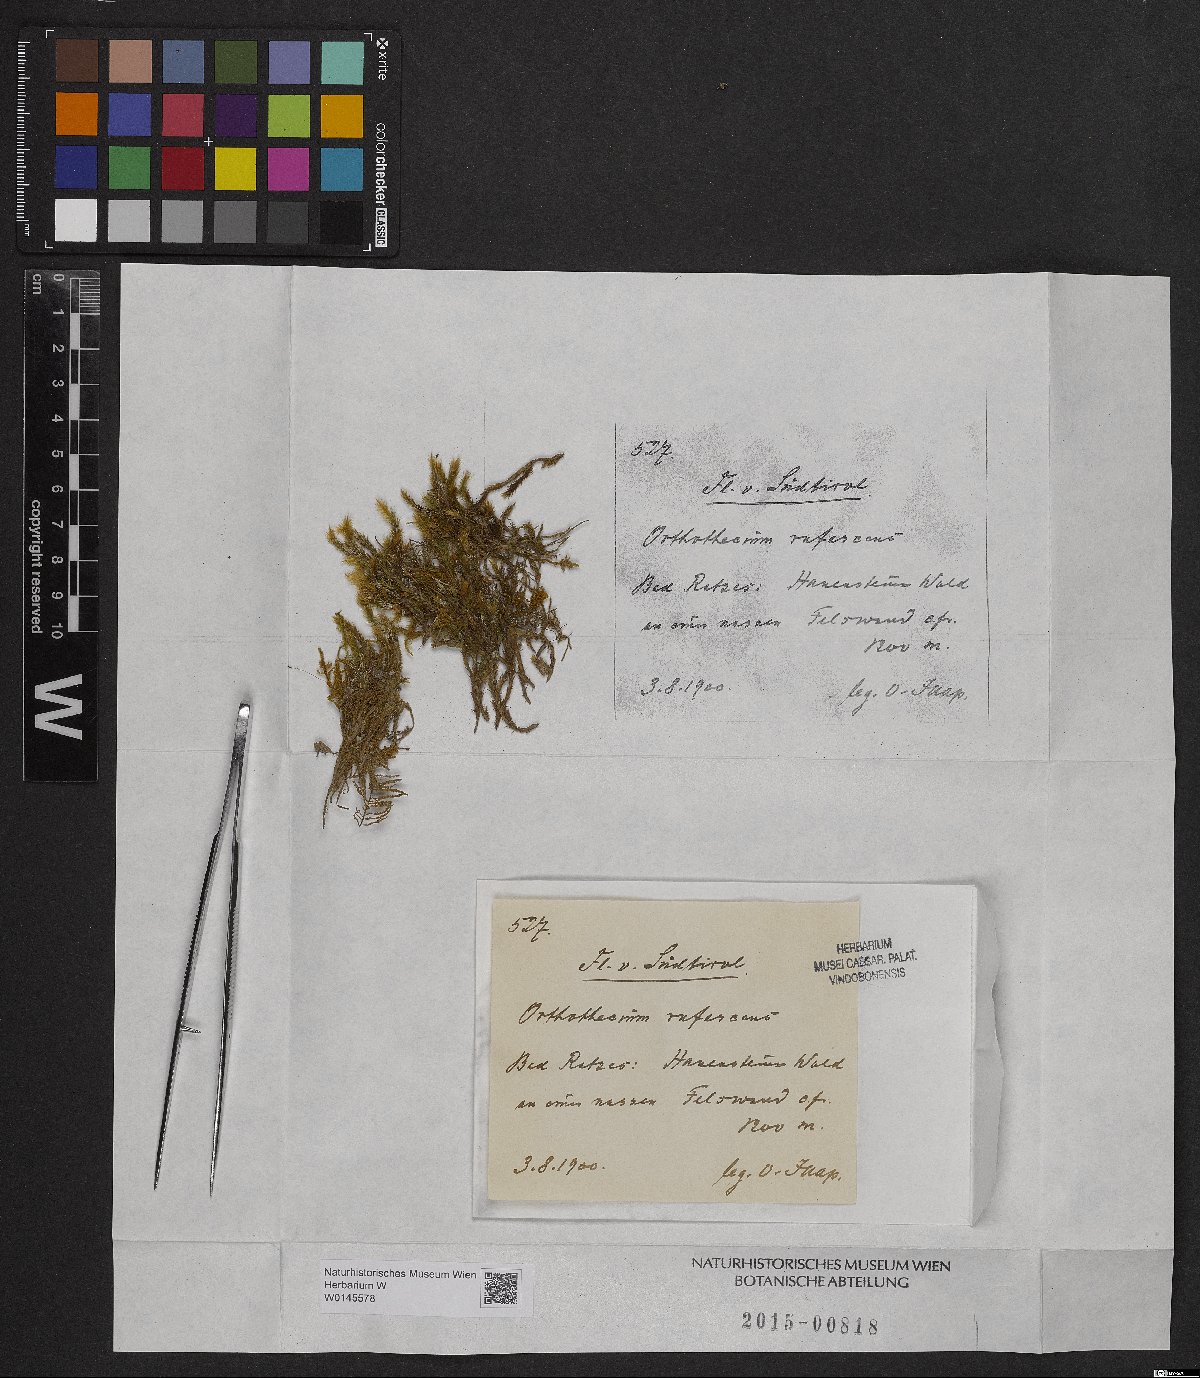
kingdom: Plantae
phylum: Bryophyta
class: Bryopsida
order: Hypnales
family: Plagiotheciaceae
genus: Orthothecium
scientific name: Orthothecium rufescens
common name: Red leskea
